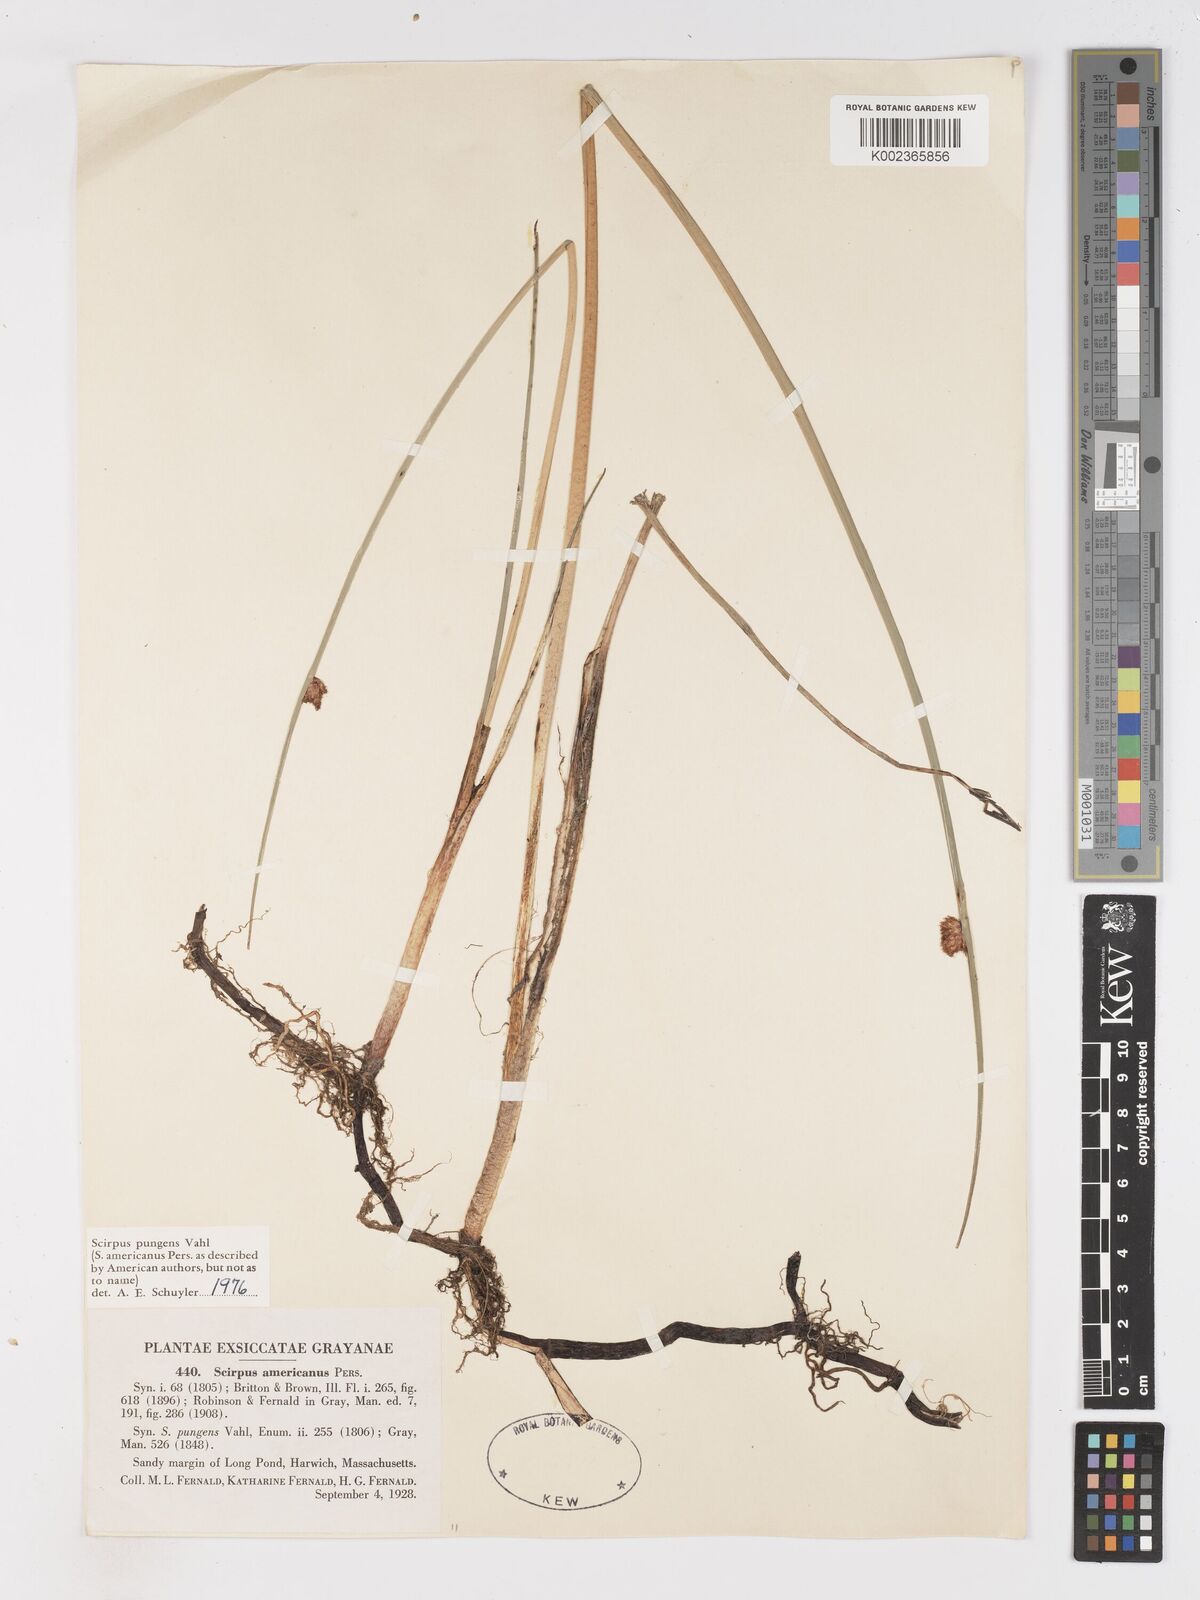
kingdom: Plantae
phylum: Tracheophyta
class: Liliopsida
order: Poales
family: Cyperaceae
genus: Schoenoplectus
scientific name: Schoenoplectus pungens
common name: Sharp club-rush
